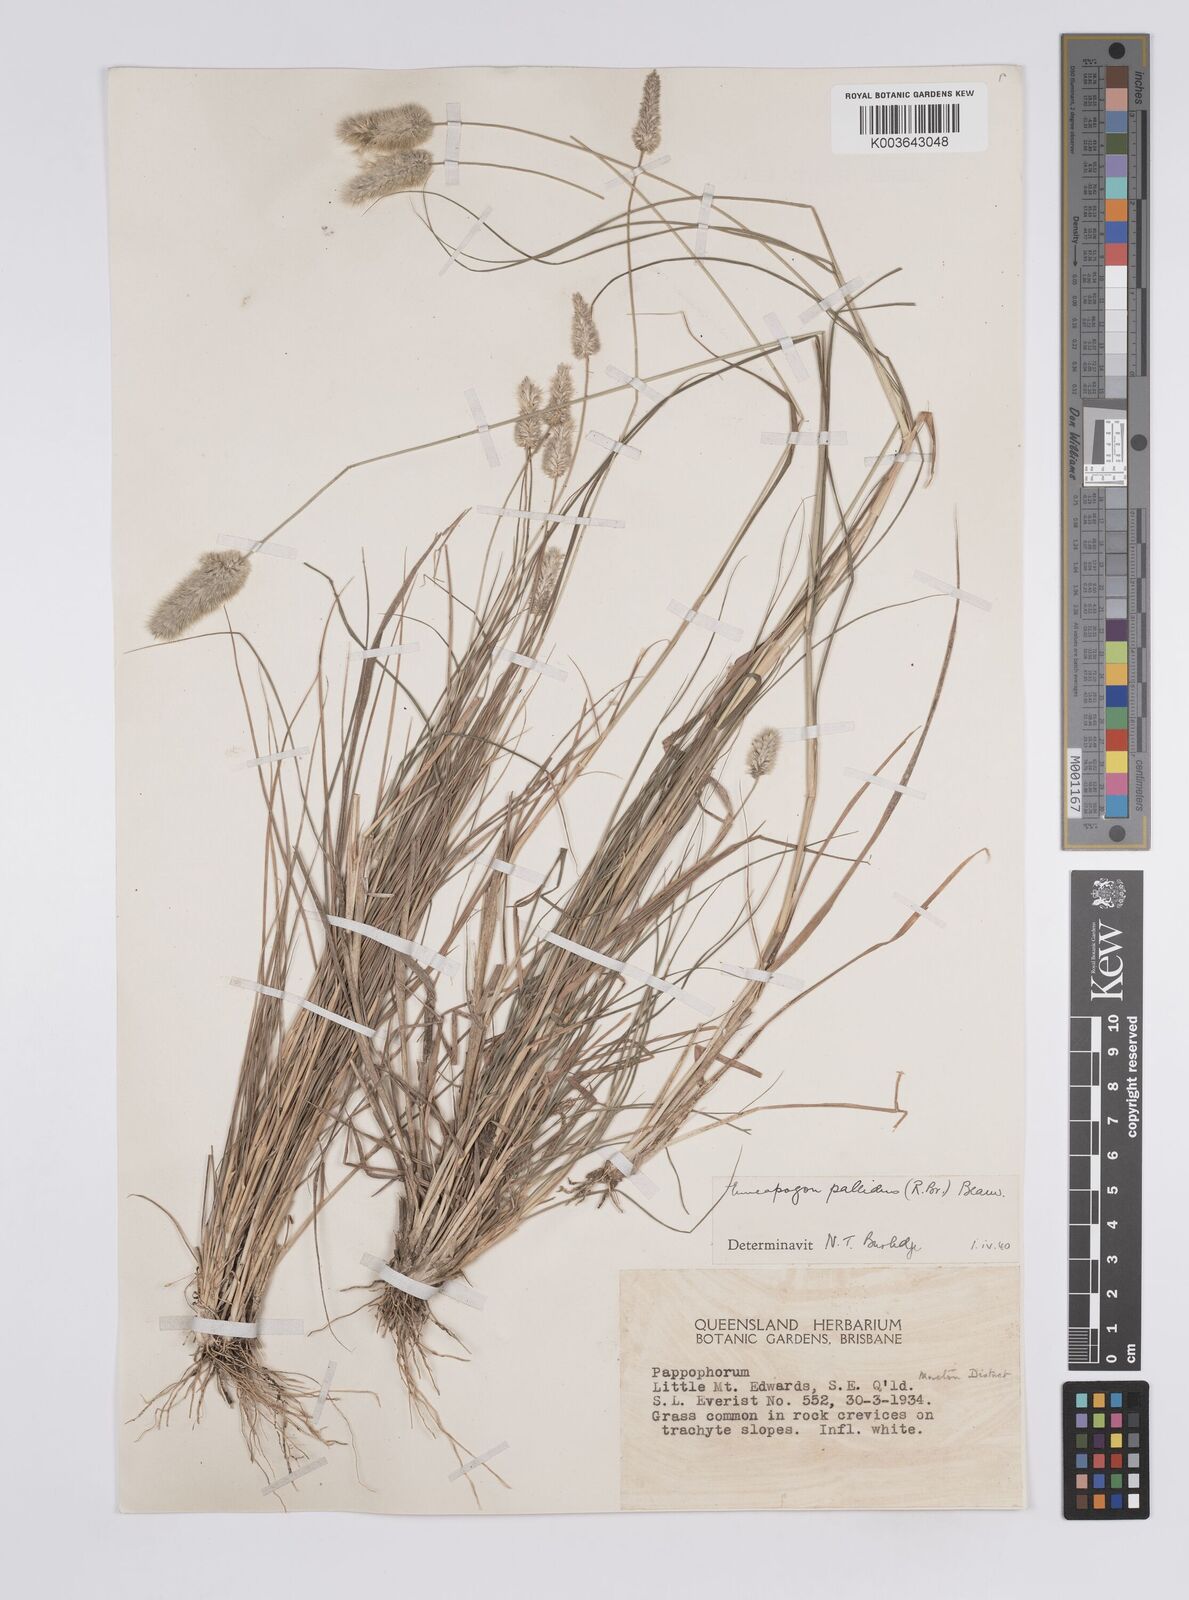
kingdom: Plantae
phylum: Tracheophyta
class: Liliopsida
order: Poales
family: Poaceae
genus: Enneapogon
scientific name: Enneapogon pallidus
